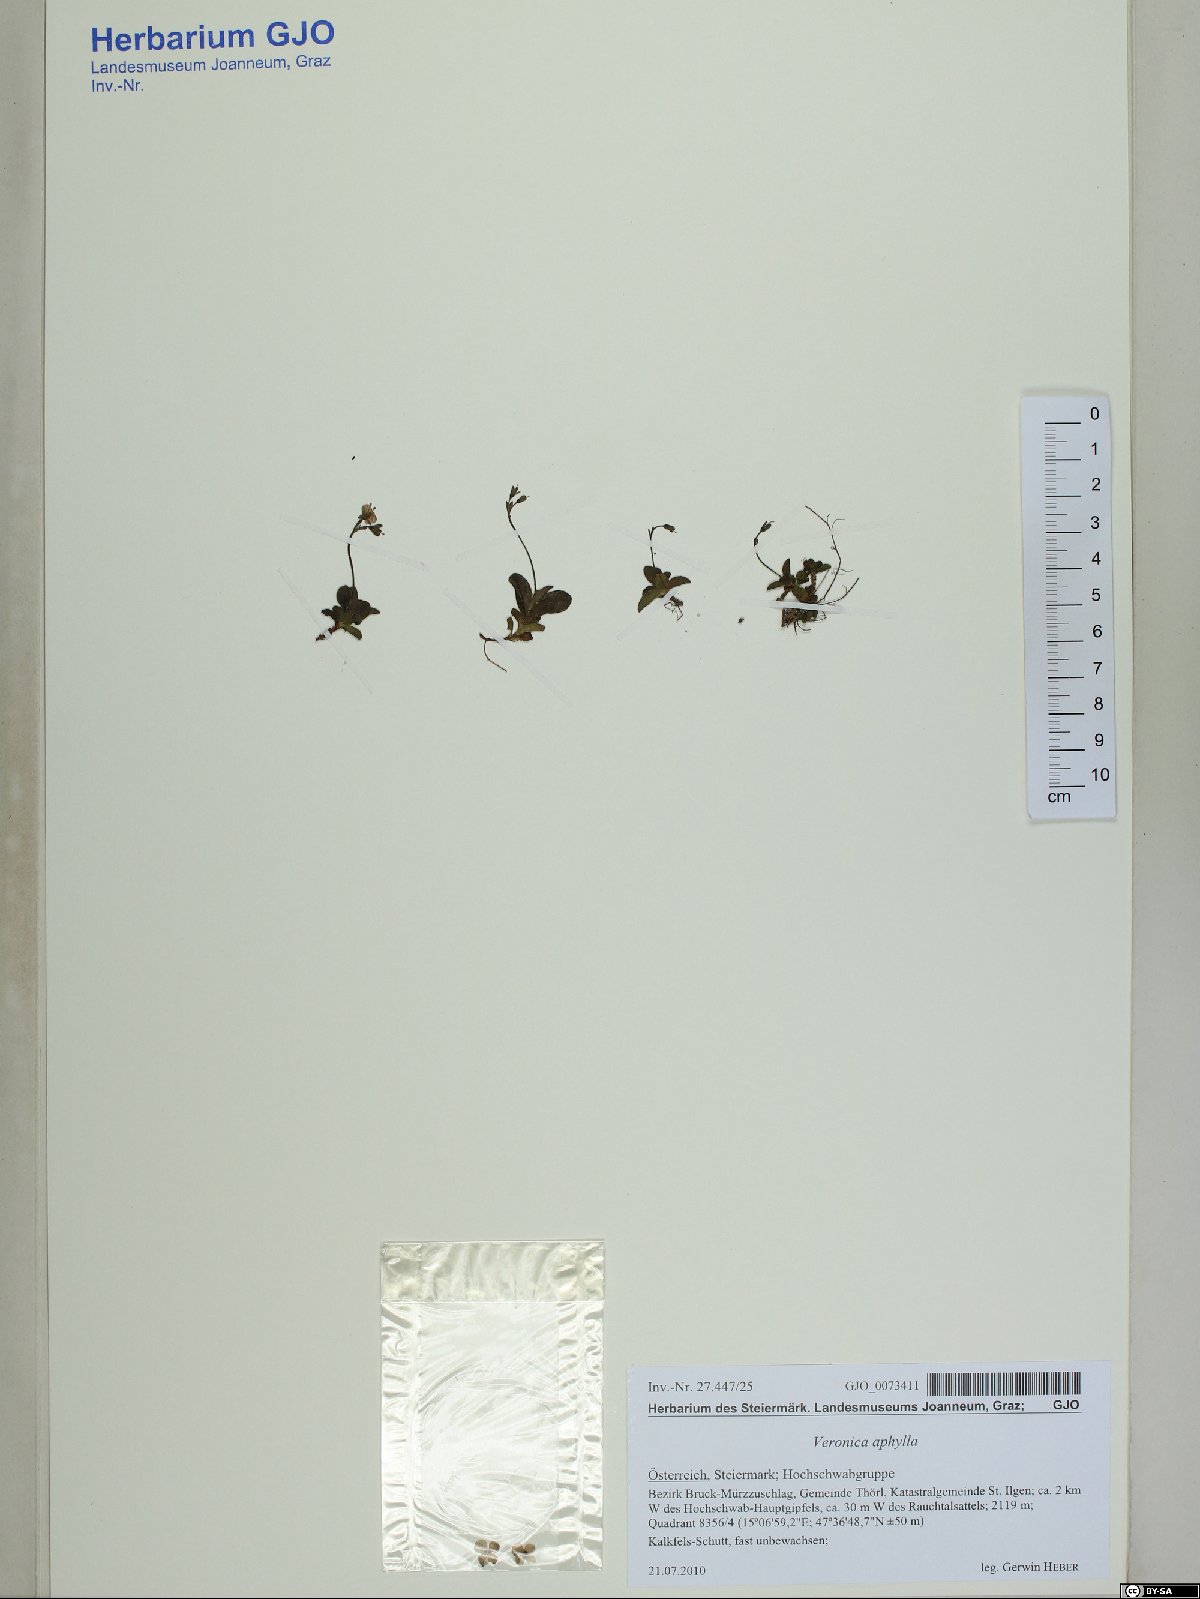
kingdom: Plantae
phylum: Tracheophyta
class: Magnoliopsida
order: Lamiales
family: Plantaginaceae
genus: Veronica
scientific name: Veronica aphylla
